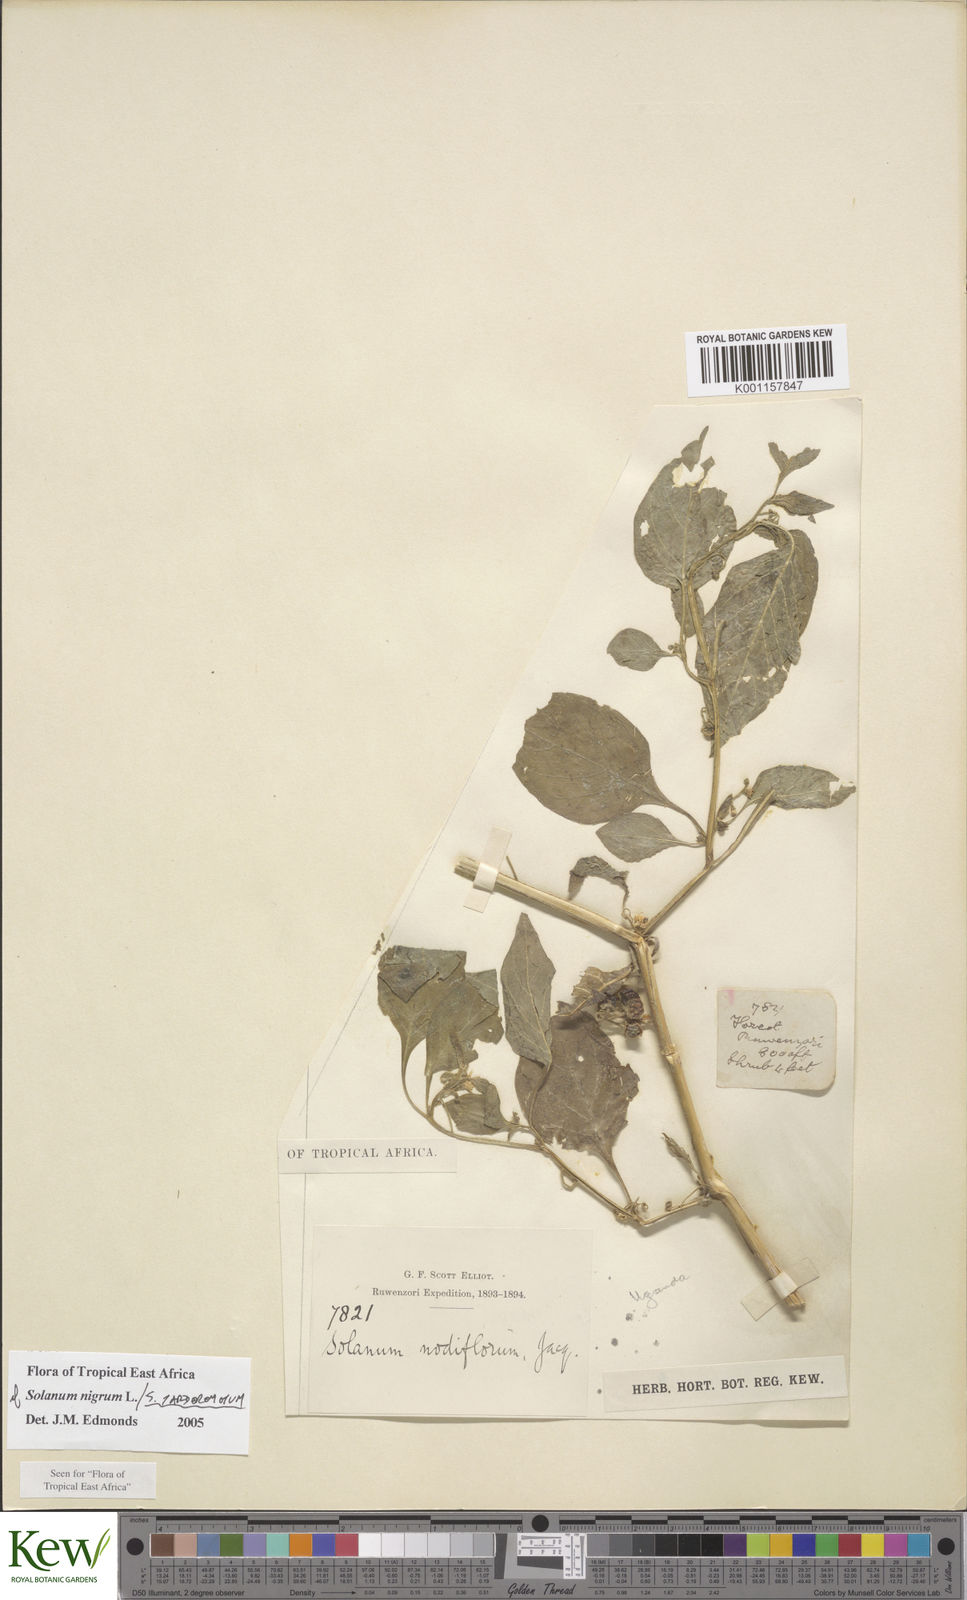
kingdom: Plantae
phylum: Tracheophyta
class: Magnoliopsida
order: Solanales
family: Solanaceae
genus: Solanum
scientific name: Solanum nigrum
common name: Black nightshade
